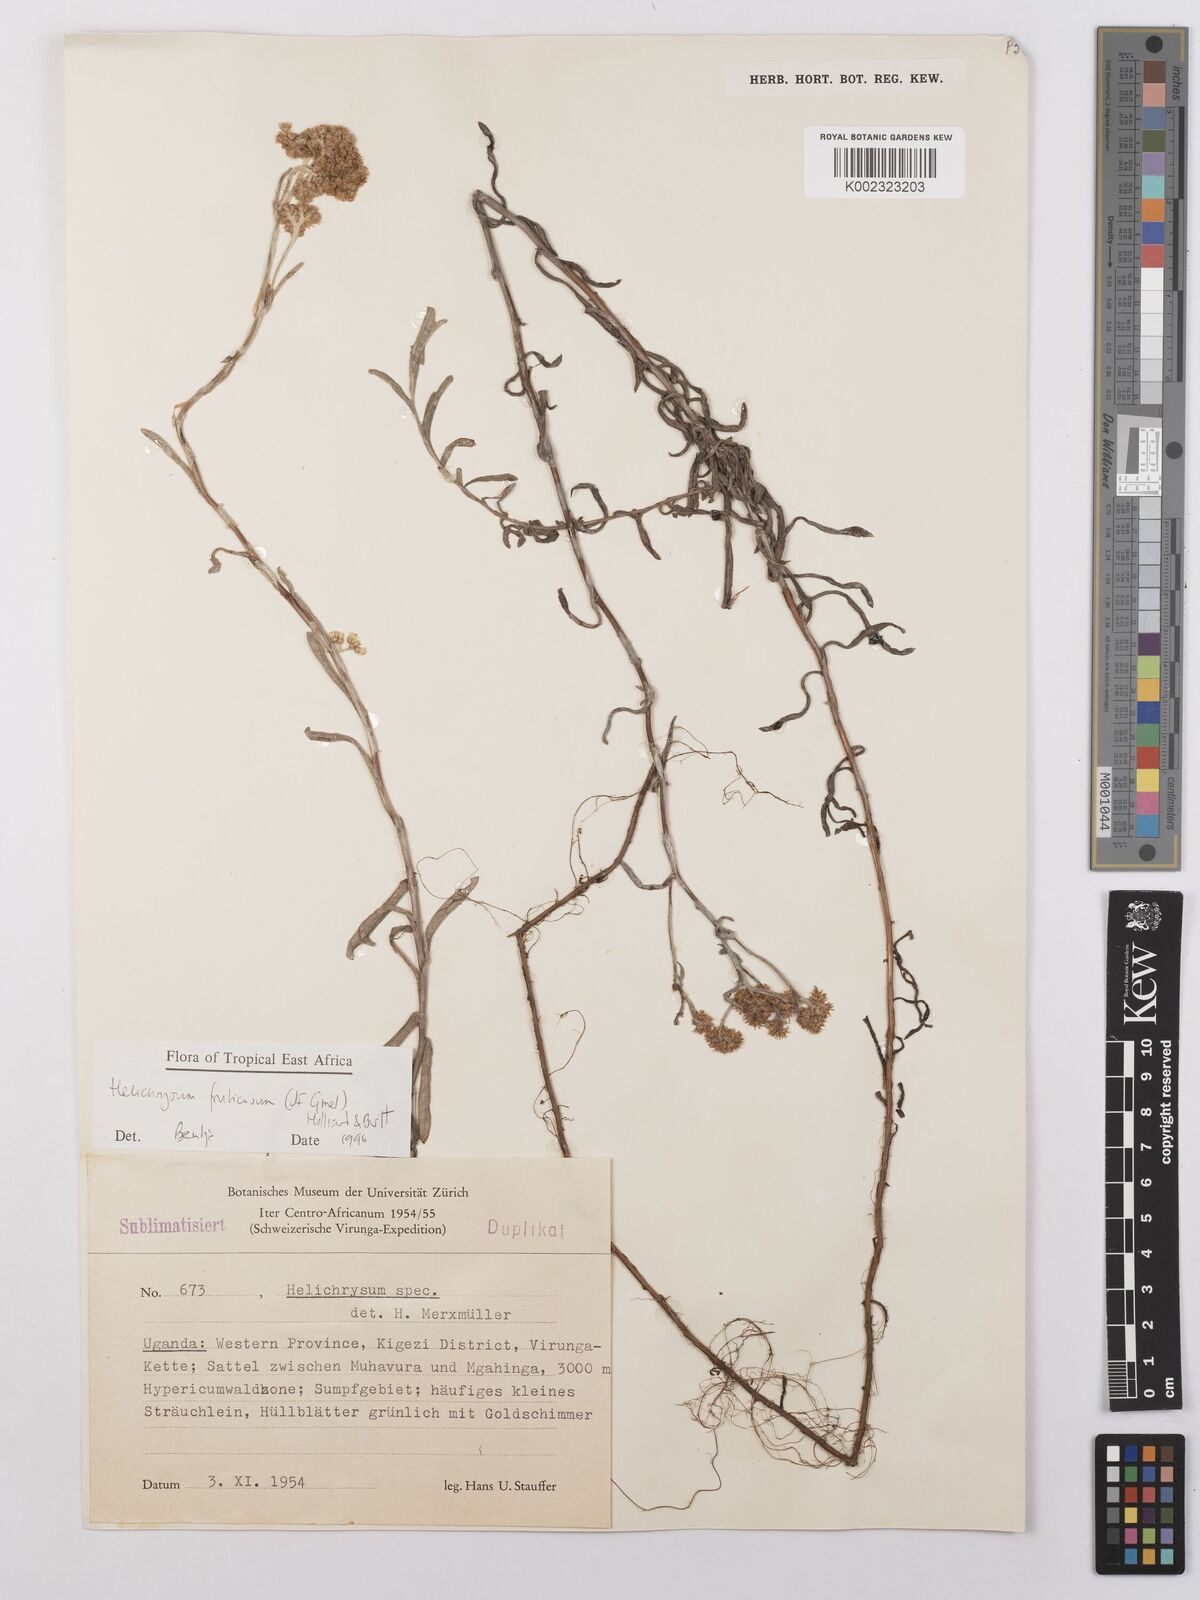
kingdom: Plantae
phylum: Tracheophyta
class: Magnoliopsida
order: Asterales
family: Asteraceae
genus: Helichrysum
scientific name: Helichrysum forskahlii
